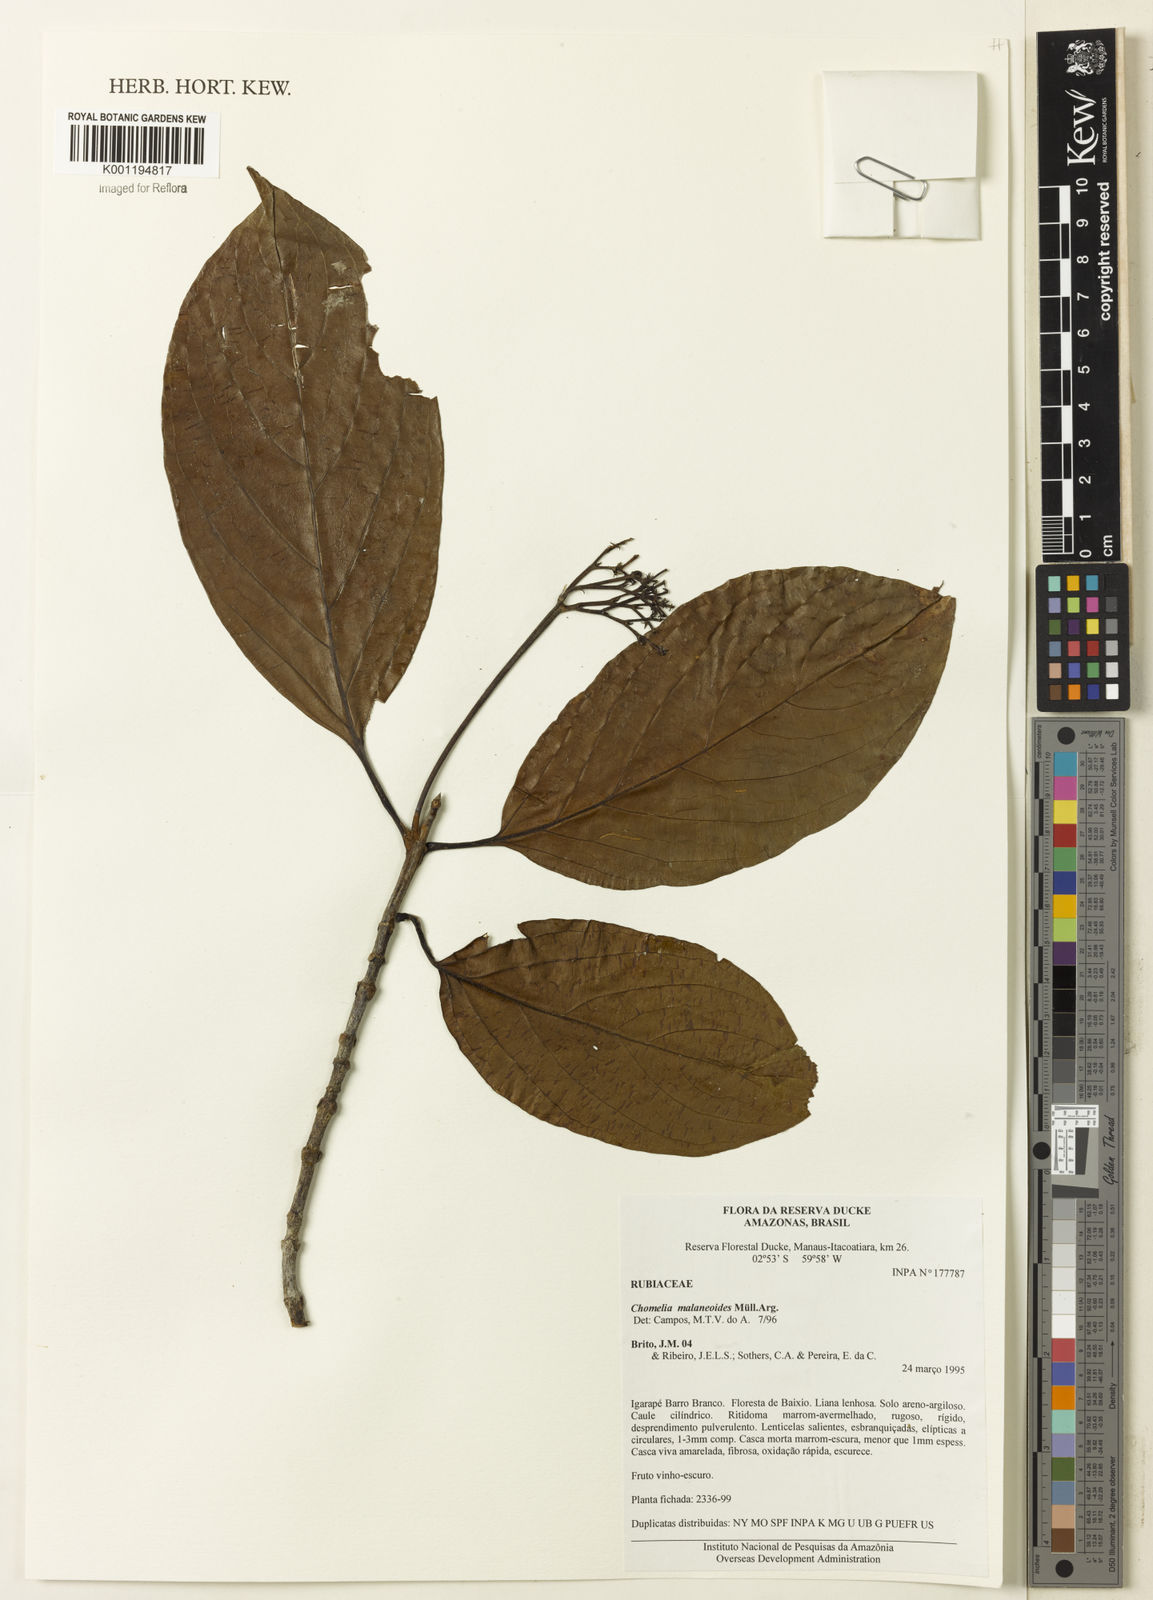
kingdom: Plantae
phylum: Tracheophyta
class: Magnoliopsida
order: Gentianales
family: Rubiaceae
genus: Chomelia
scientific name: Chomelia
